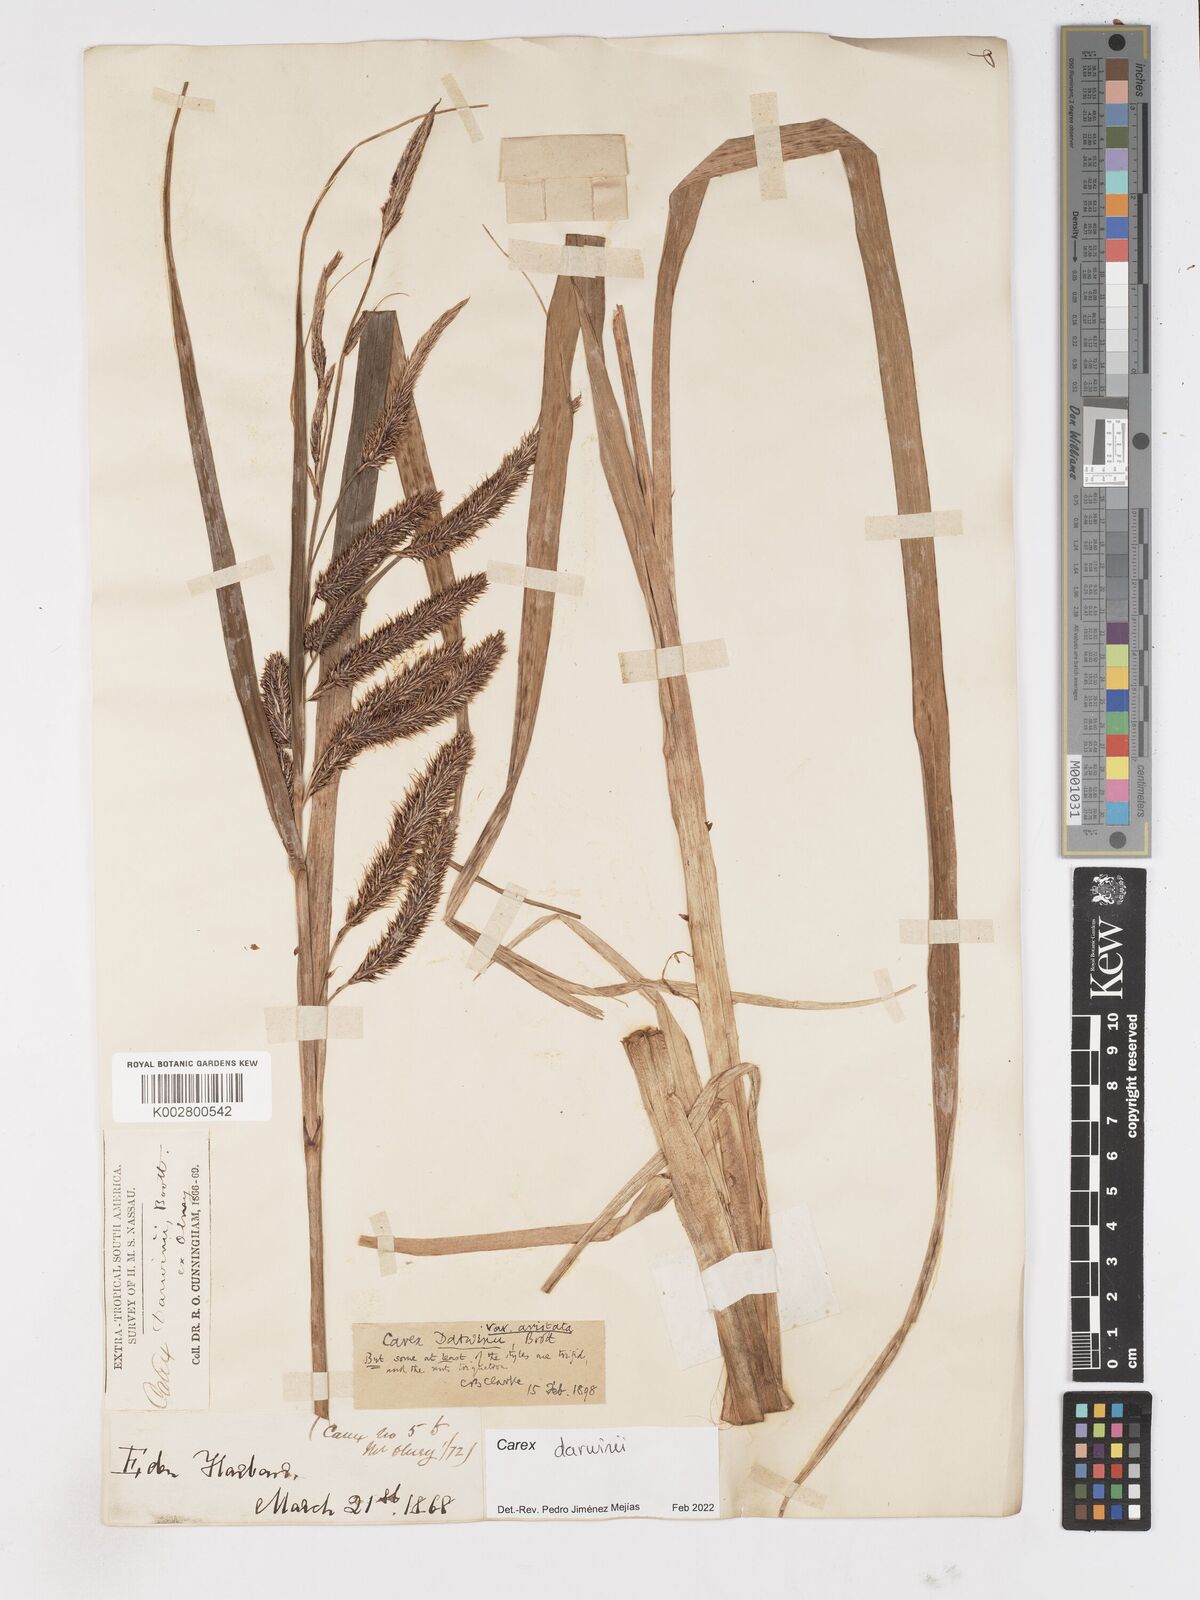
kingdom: Plantae
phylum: Tracheophyta
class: Liliopsida
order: Poales
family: Cyperaceae
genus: Carex
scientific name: Carex darwinii
